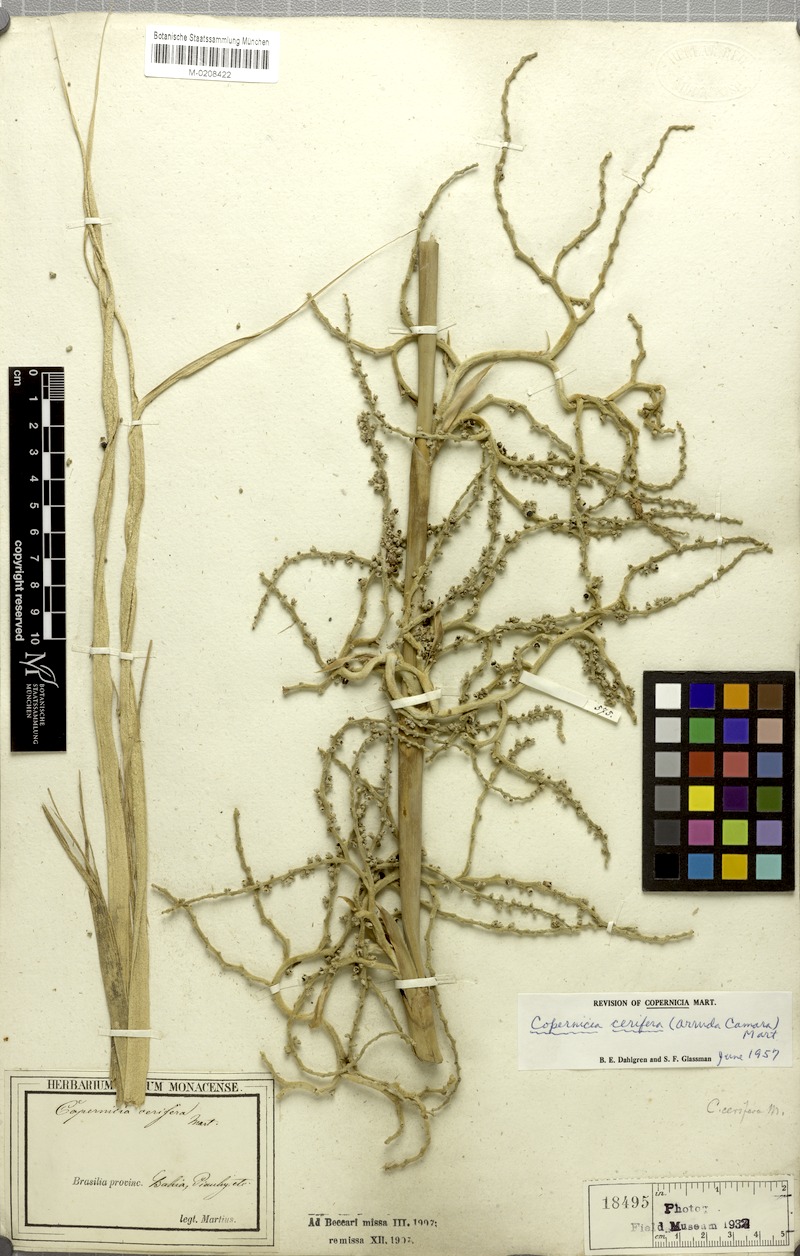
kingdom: Plantae
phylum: Tracheophyta
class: Liliopsida
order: Arecales
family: Arecaceae
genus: Copernicia
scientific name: Copernicia prunifera
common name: Carnauba palm
